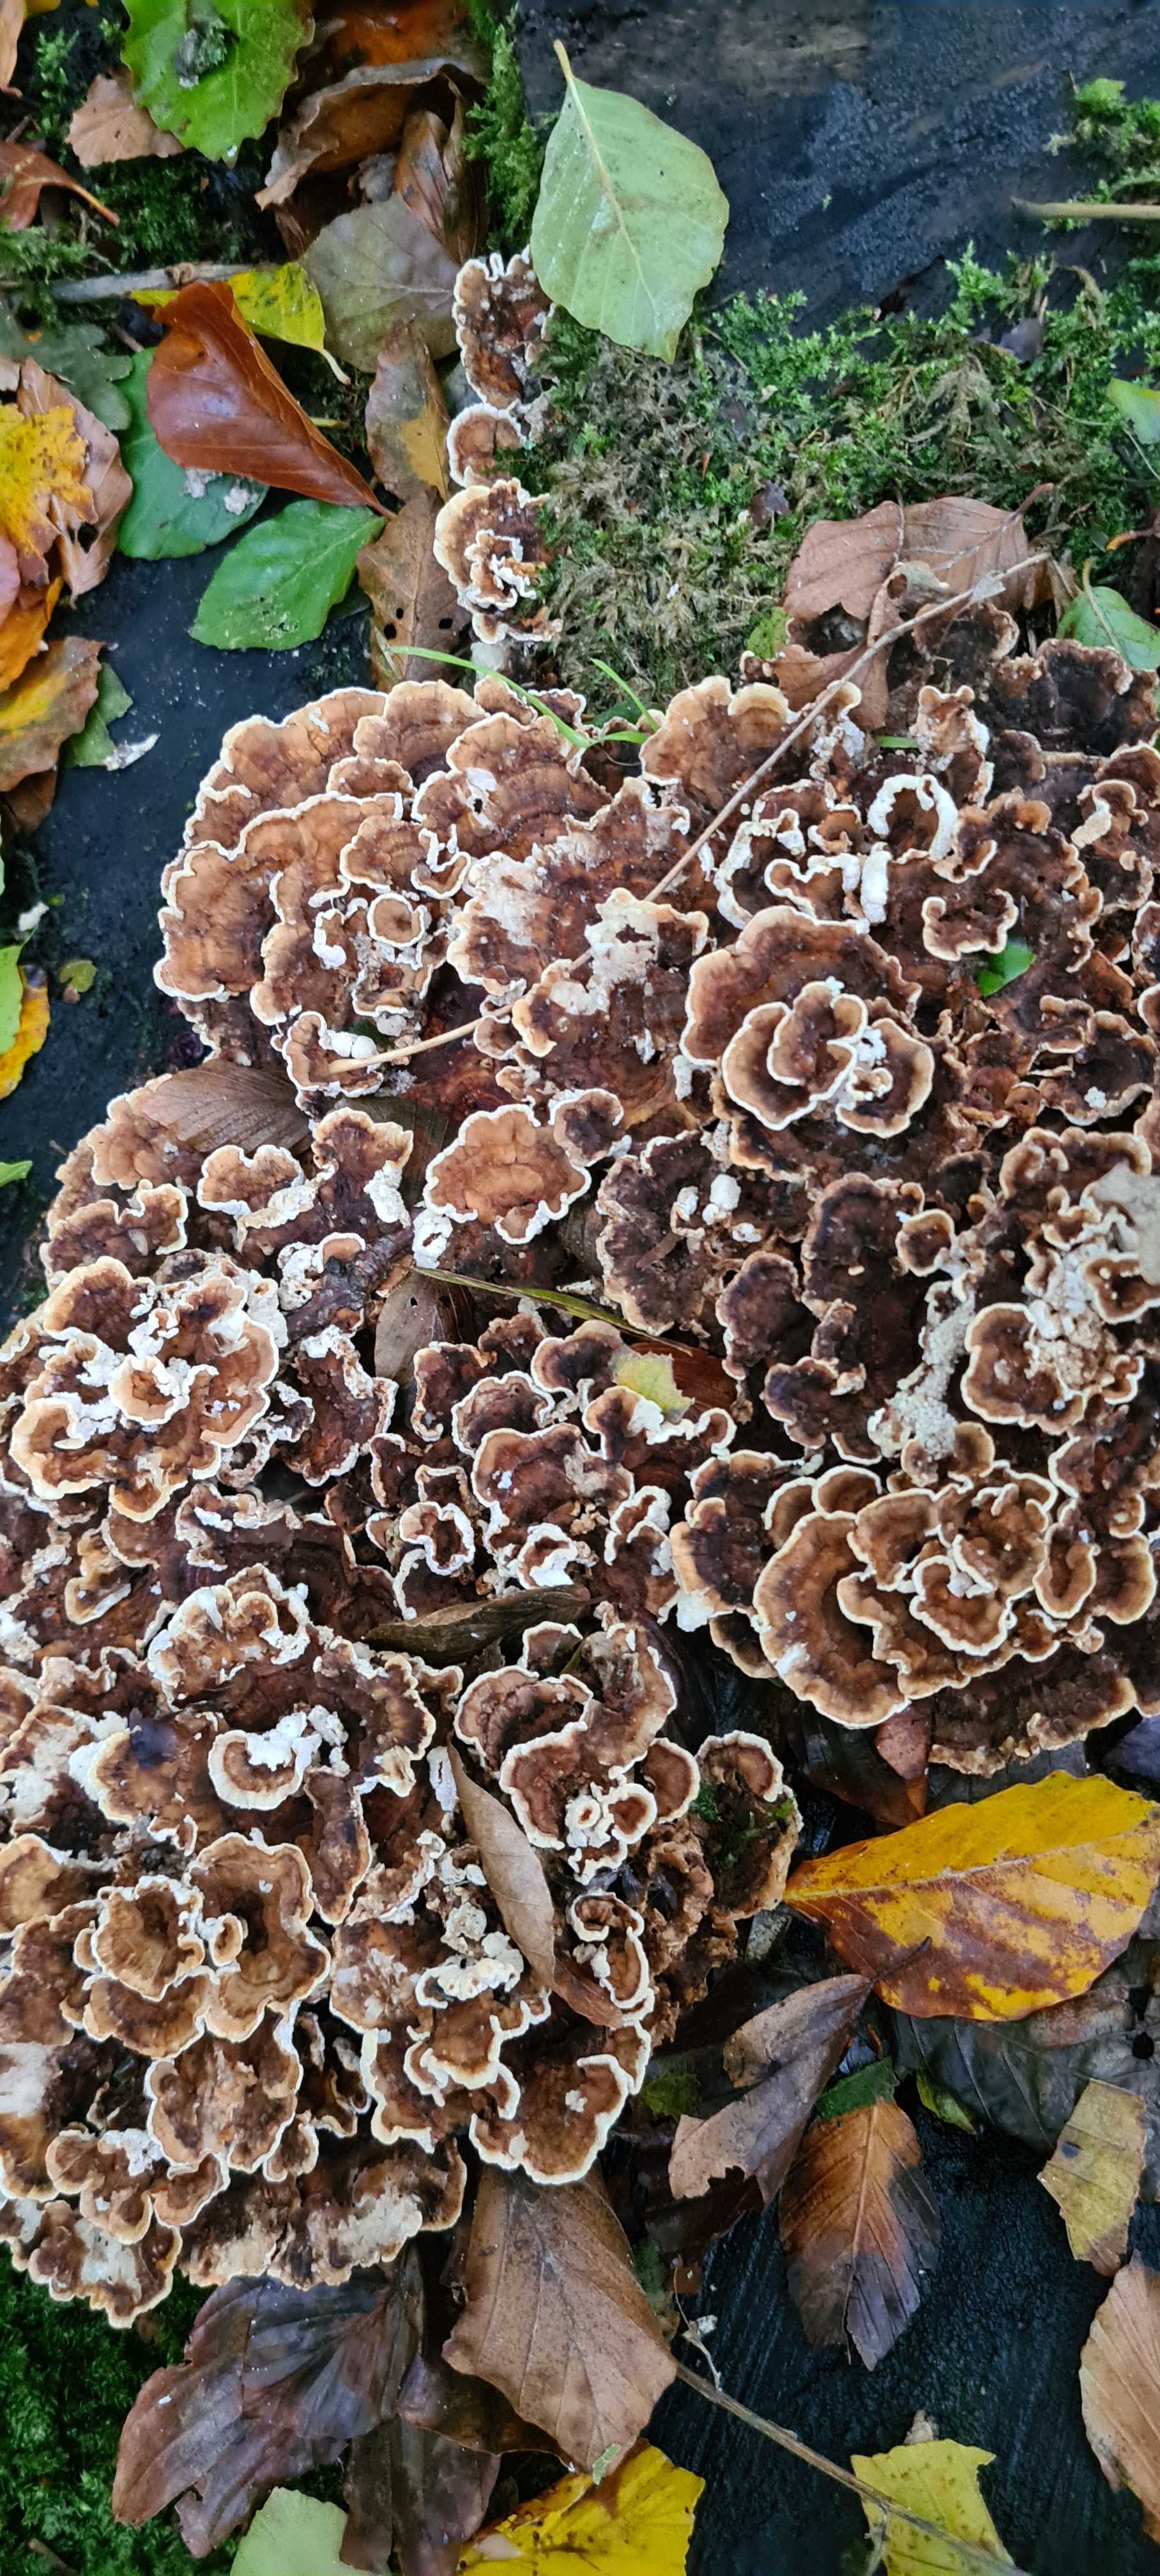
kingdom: Fungi
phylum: Basidiomycota
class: Agaricomycetes
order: Polyporales
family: Polyporaceae
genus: Trametes
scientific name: Trametes versicolor
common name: broget læderporesvamp
